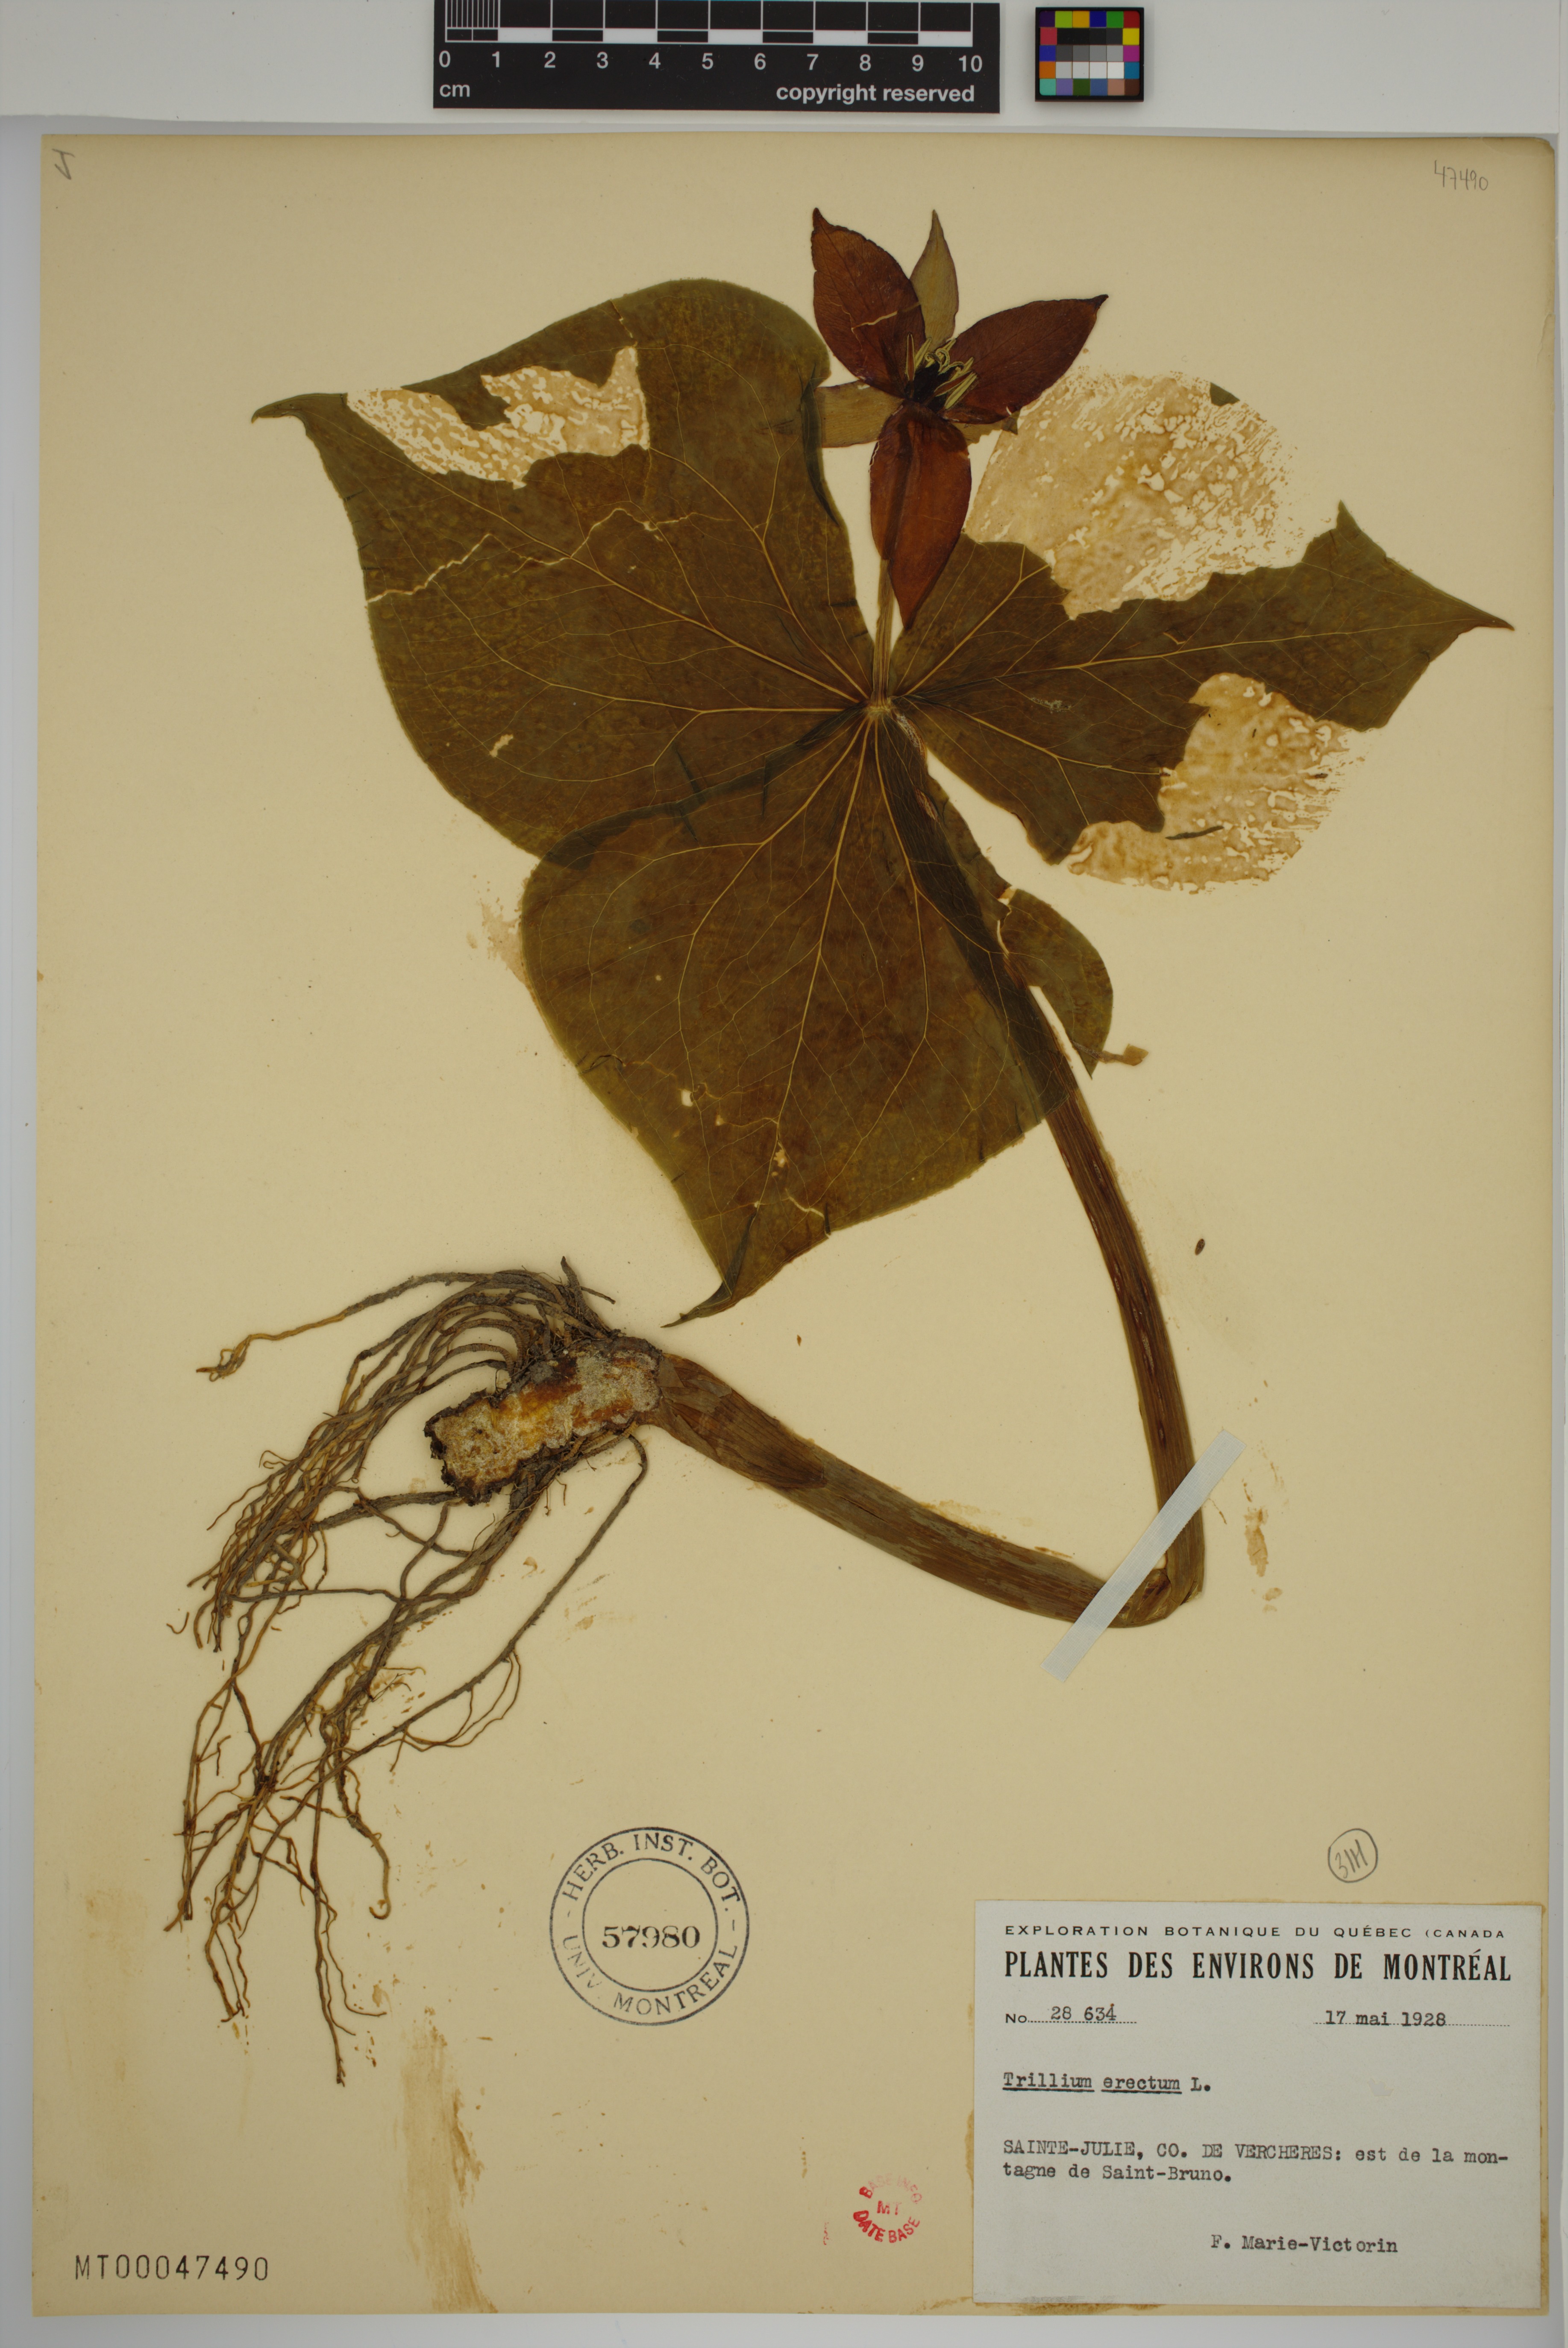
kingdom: Plantae
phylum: Tracheophyta
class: Liliopsida
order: Liliales
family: Melanthiaceae
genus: Trillium
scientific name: Trillium erectum
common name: Purple trillium
